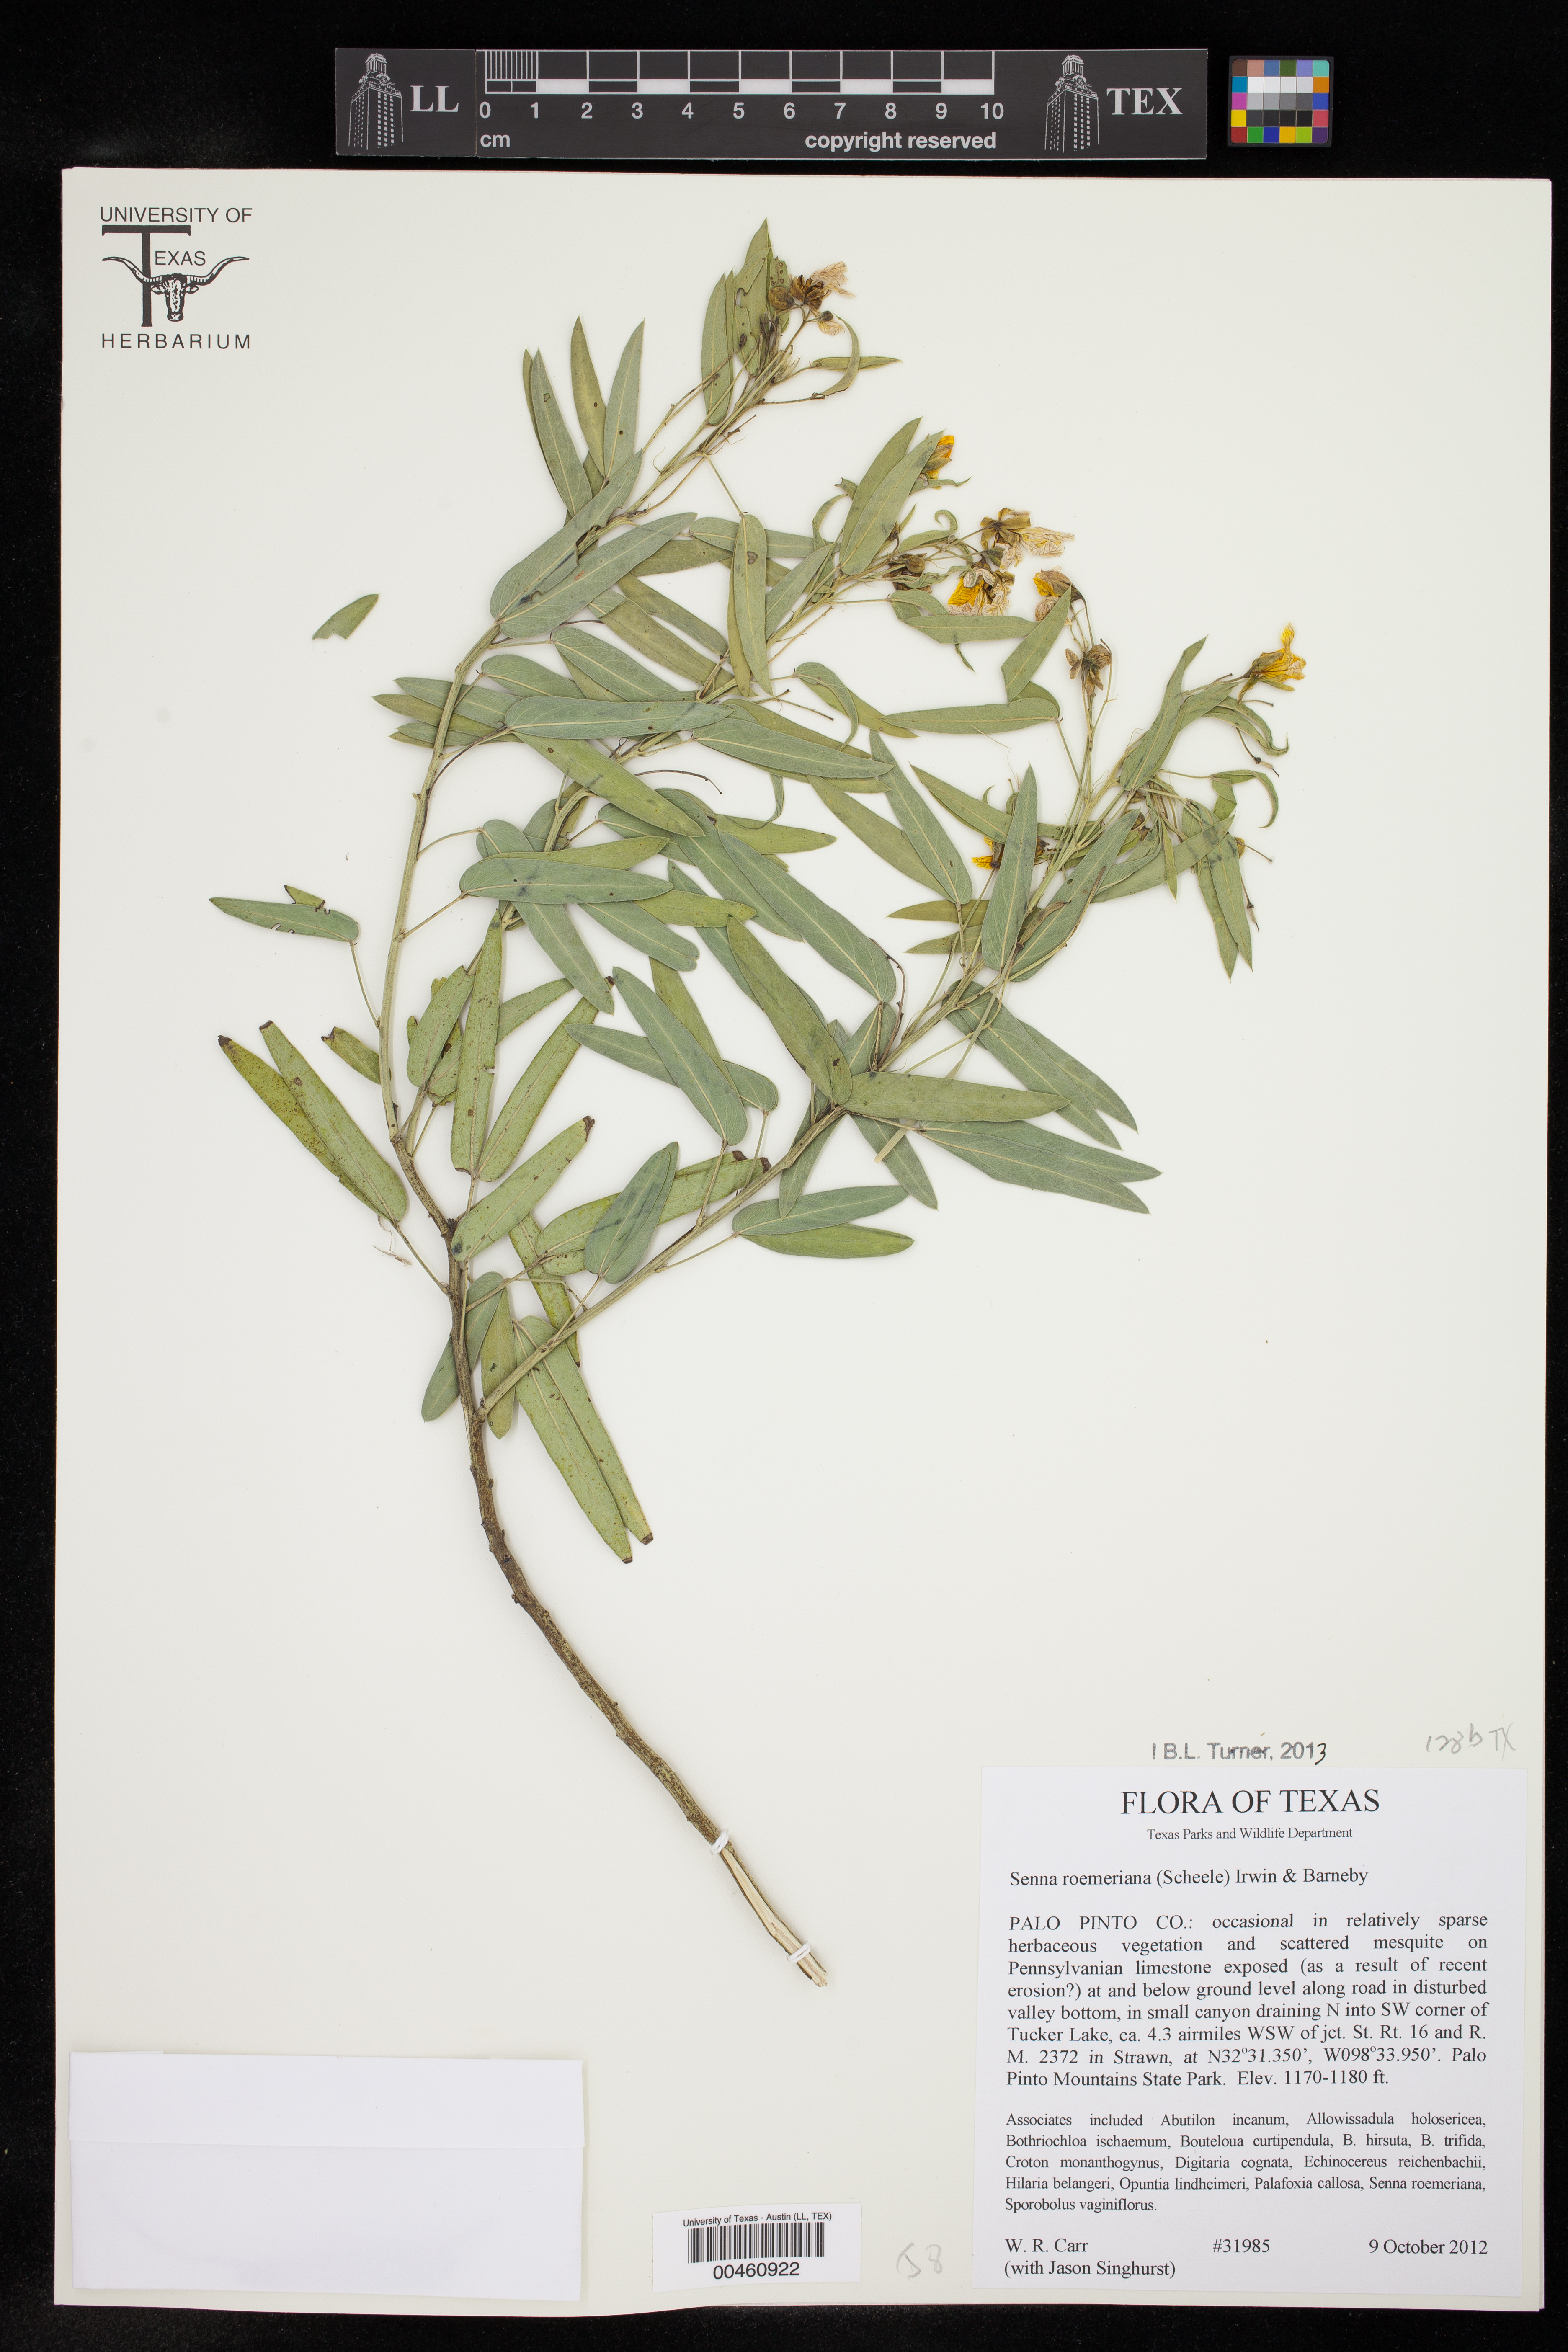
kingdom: Plantae
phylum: Tracheophyta
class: Magnoliopsida
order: Fabales
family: Fabaceae
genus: Senna
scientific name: Senna roemeriana
